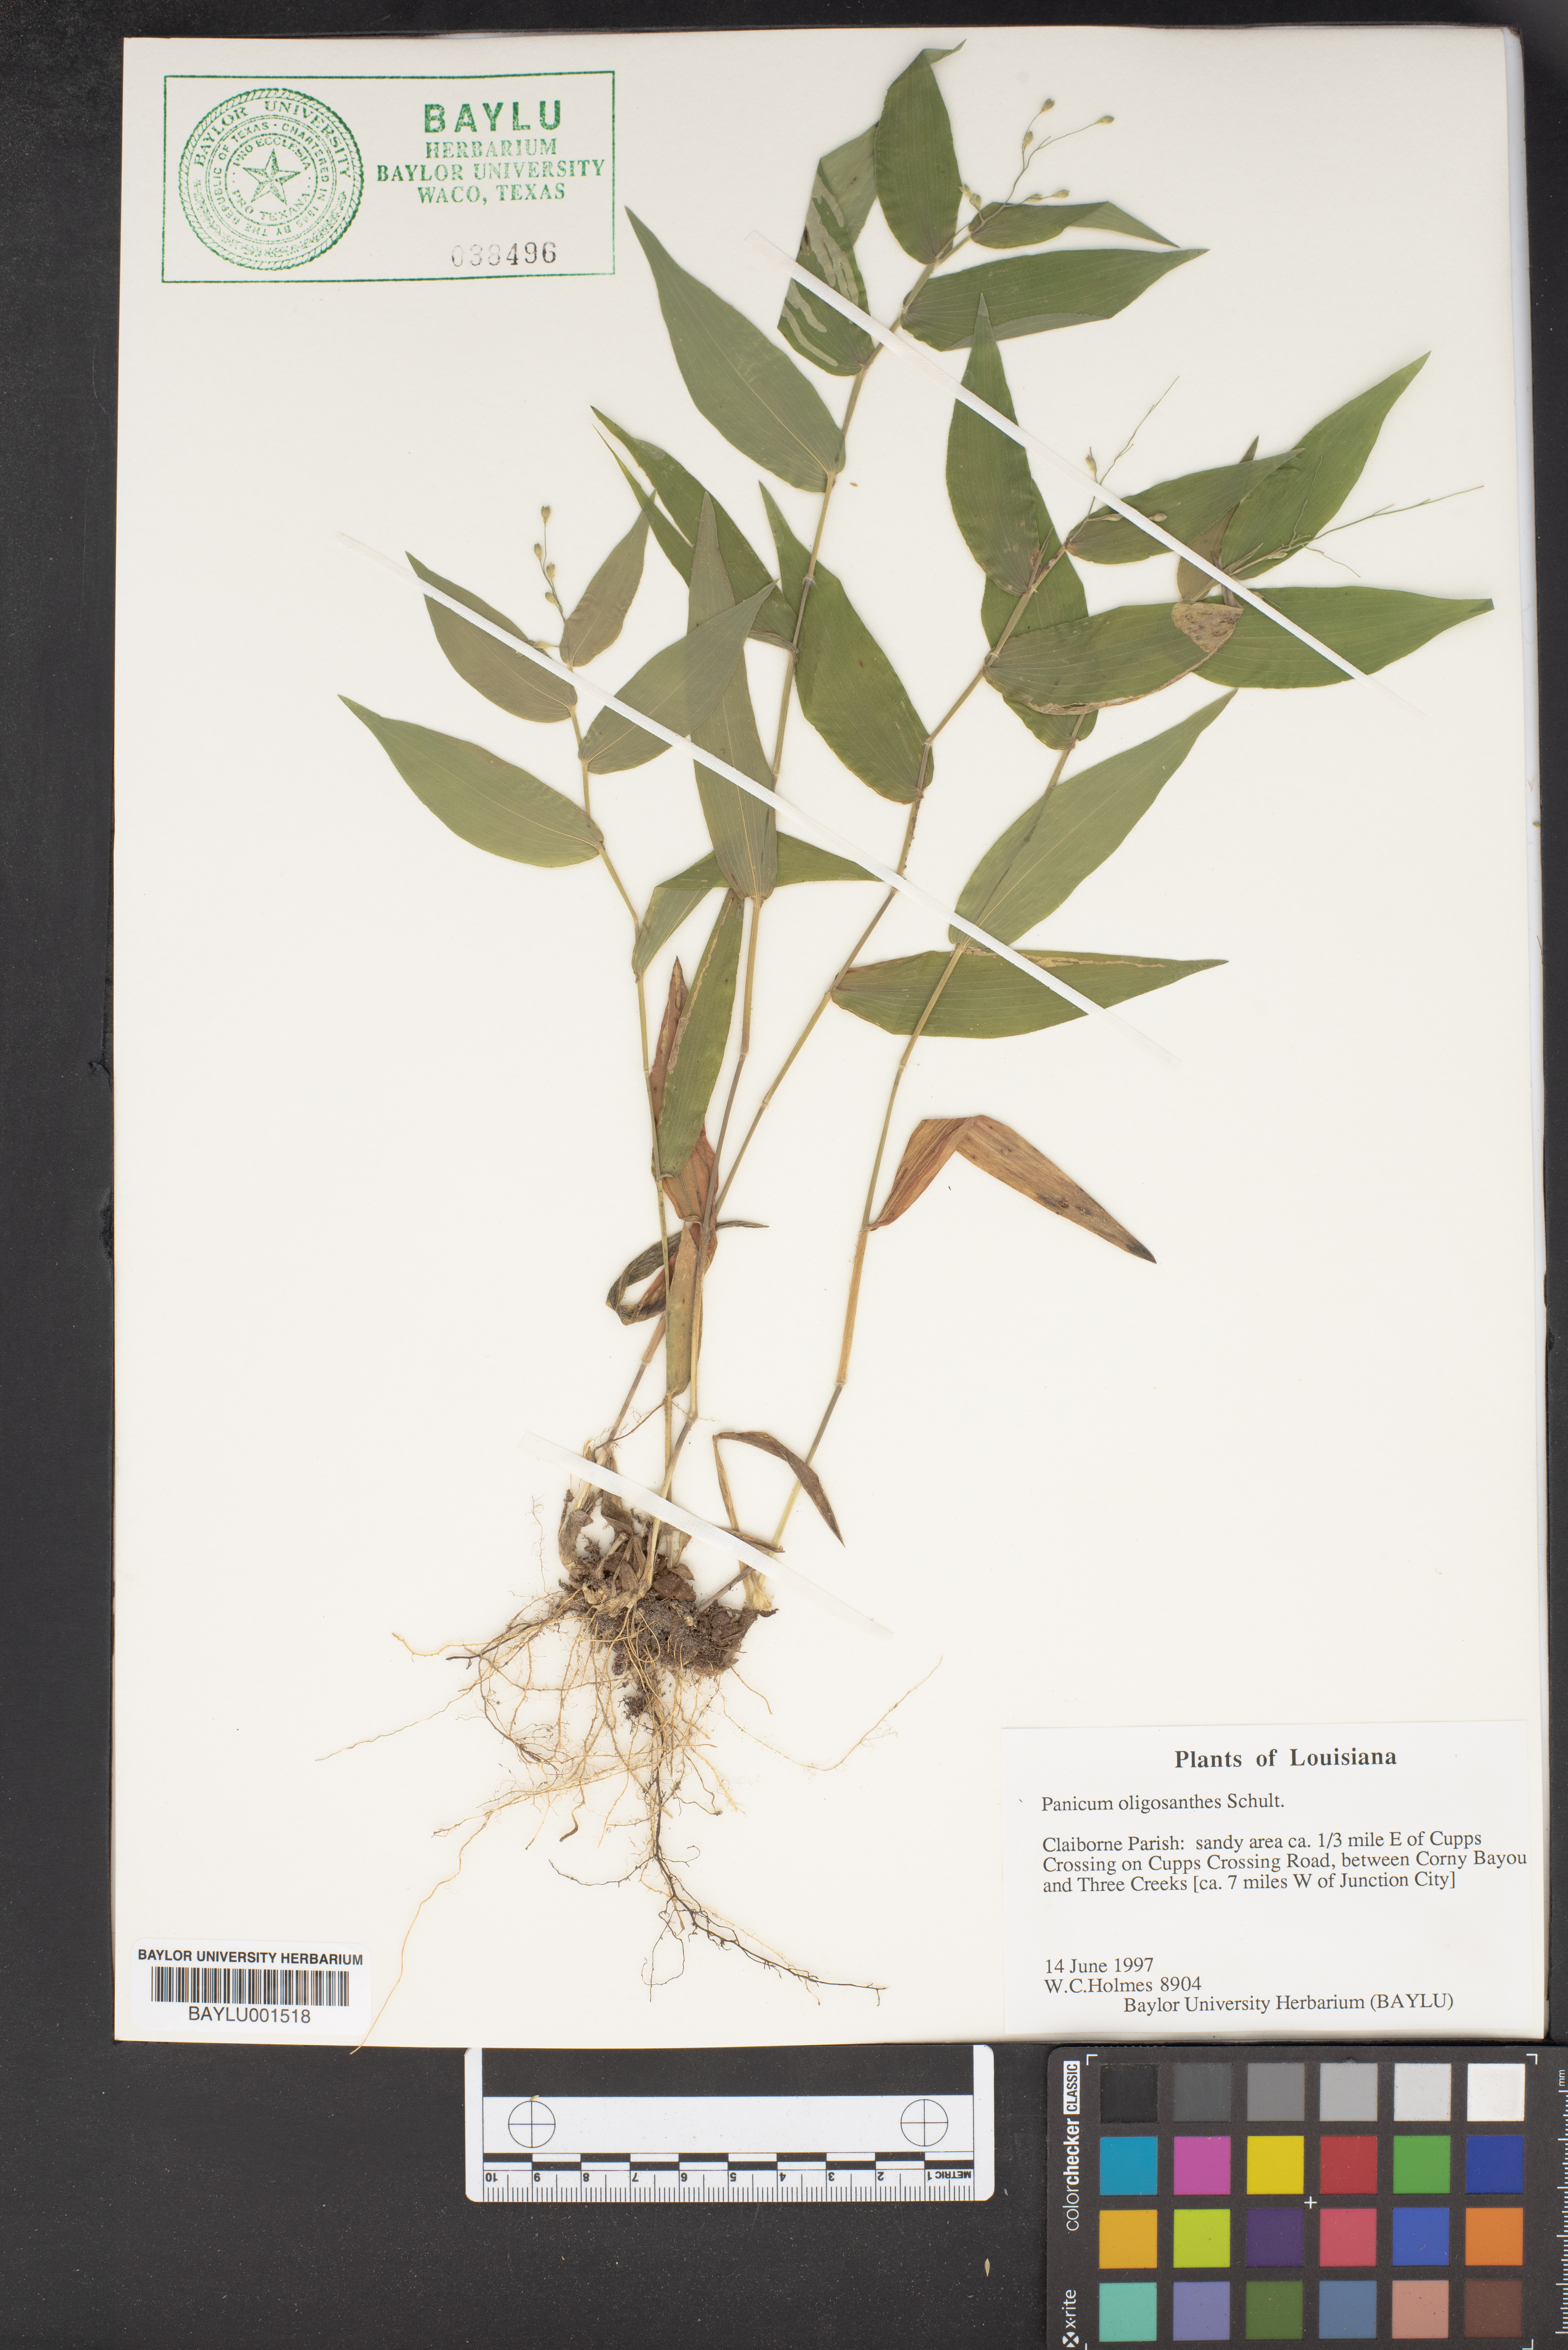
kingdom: Plantae
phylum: Tracheophyta
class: Liliopsida
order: Poales
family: Poaceae
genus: Dichanthelium
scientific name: Dichanthelium oligosanthes
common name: Few-anther obscuregrass
